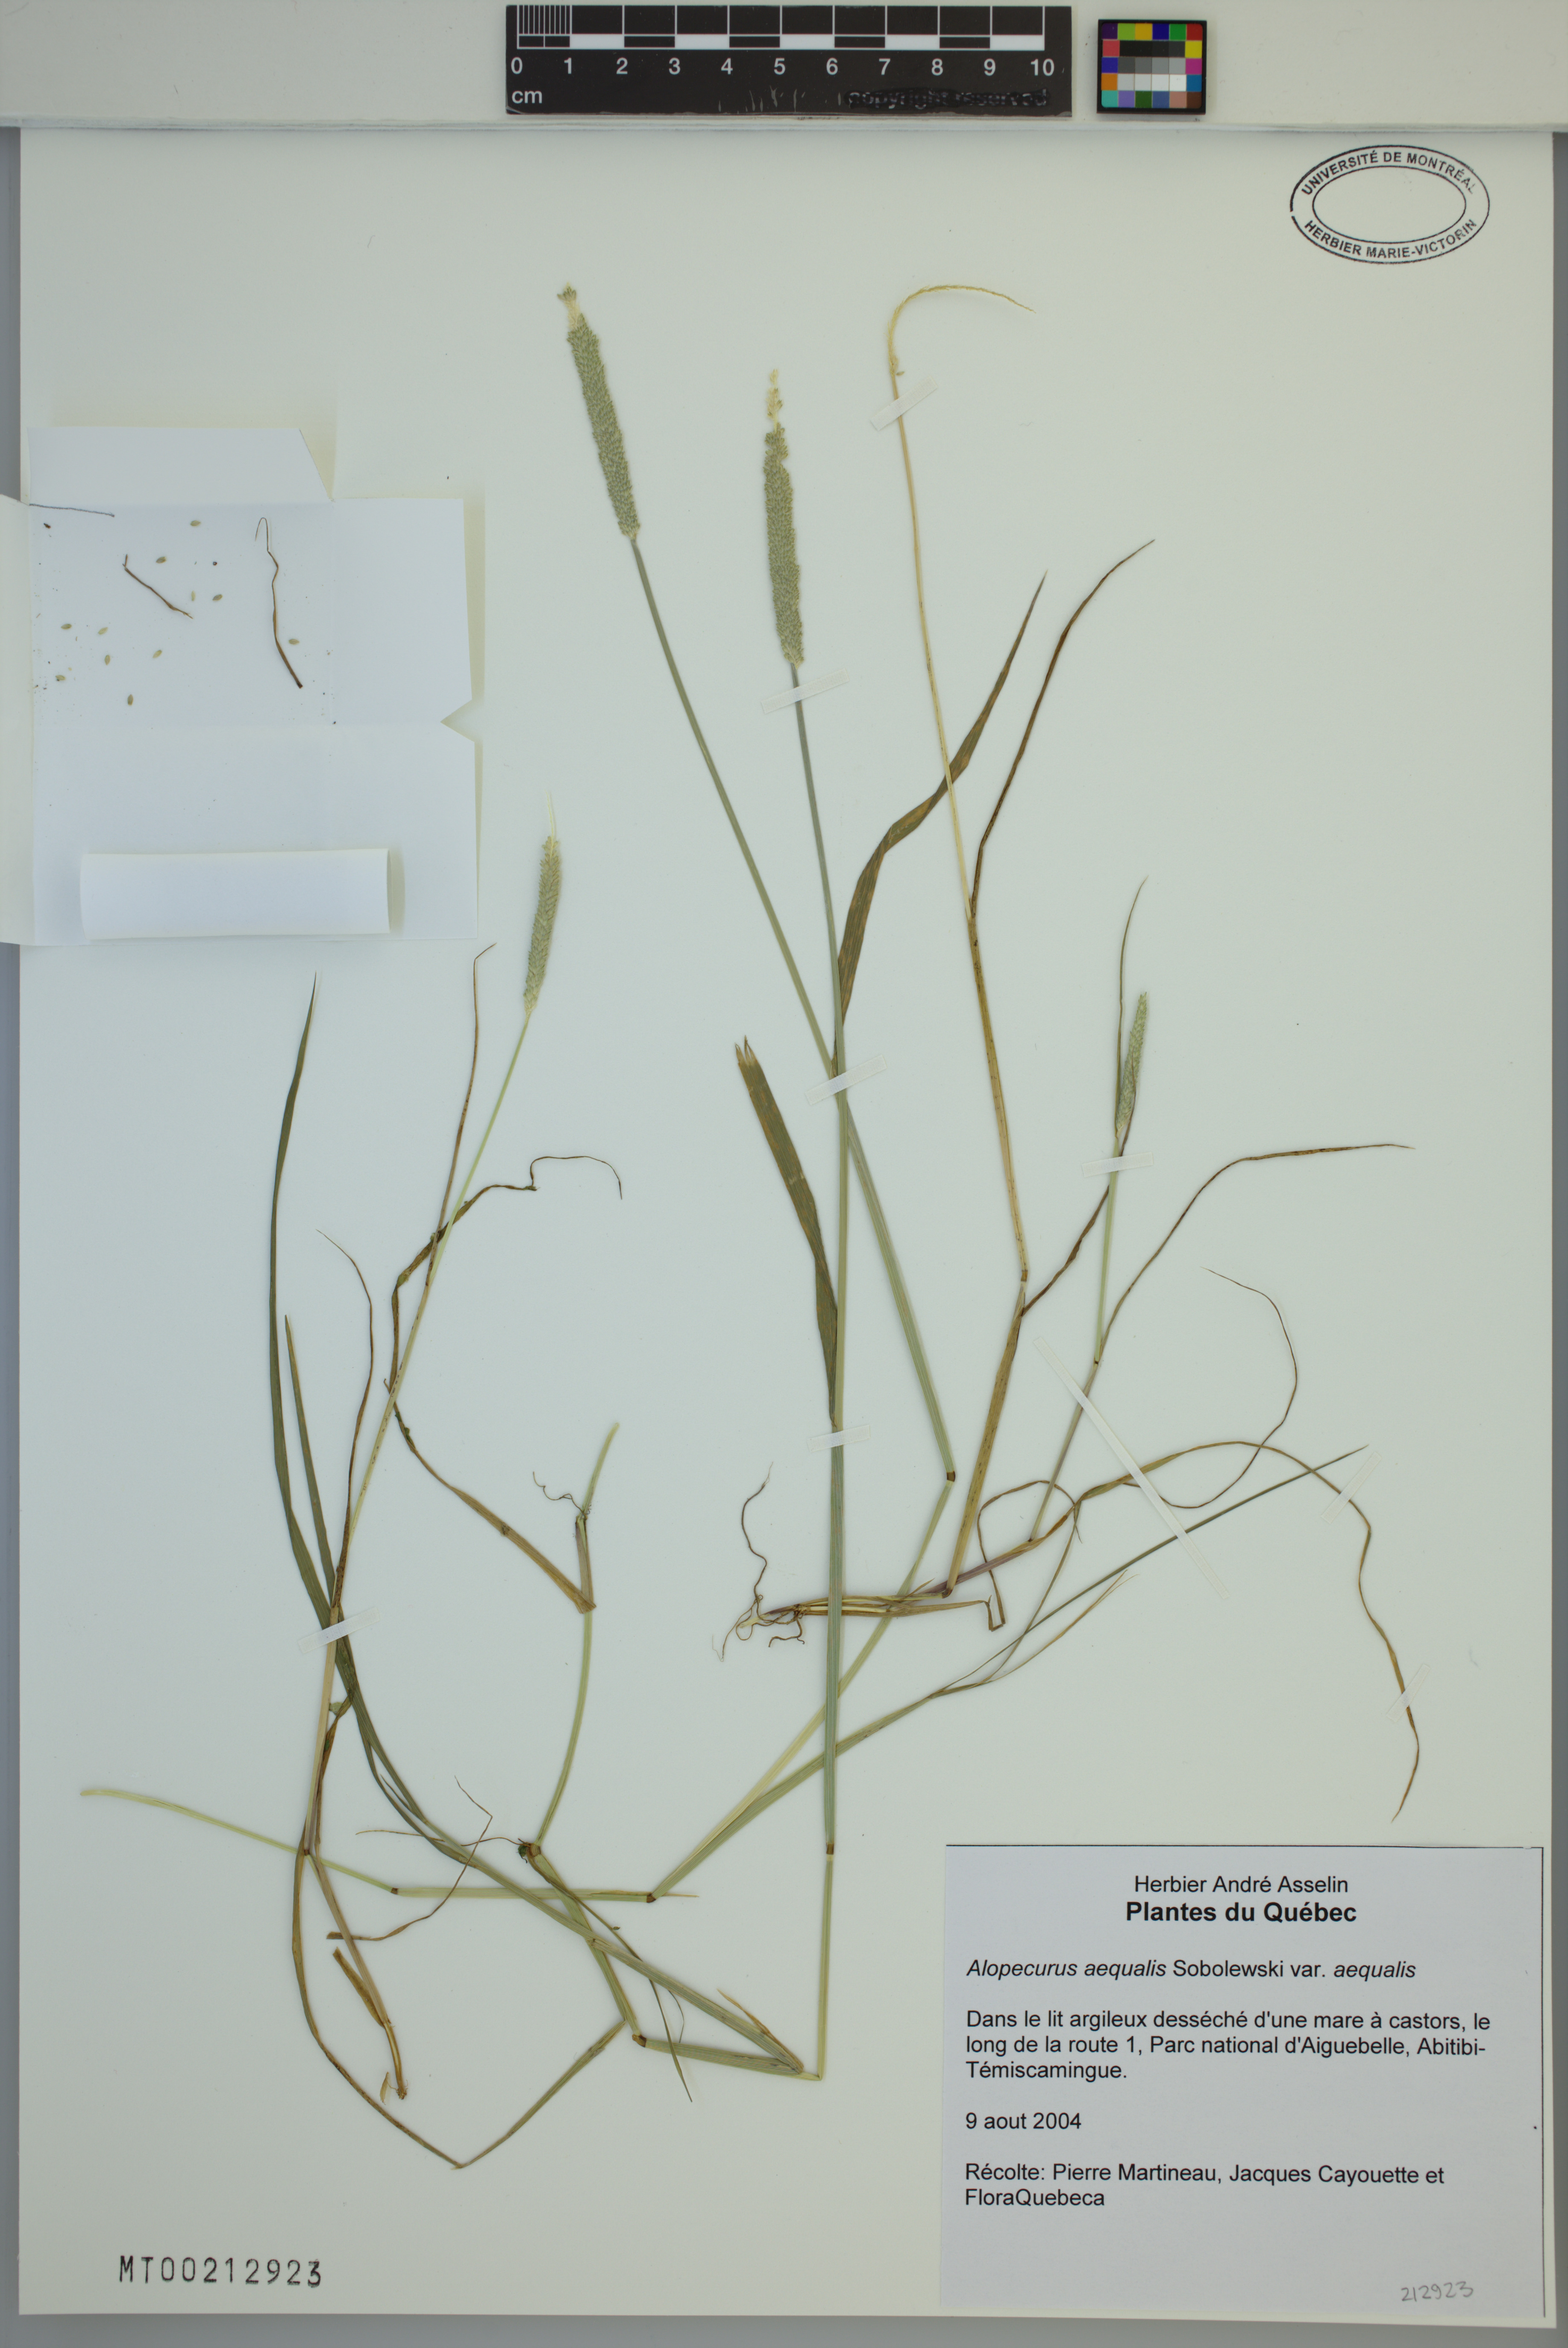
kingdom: Plantae
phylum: Tracheophyta
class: Liliopsida
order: Poales
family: Poaceae
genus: Alopecurus
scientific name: Alopecurus aequalis
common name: Orange foxtail
